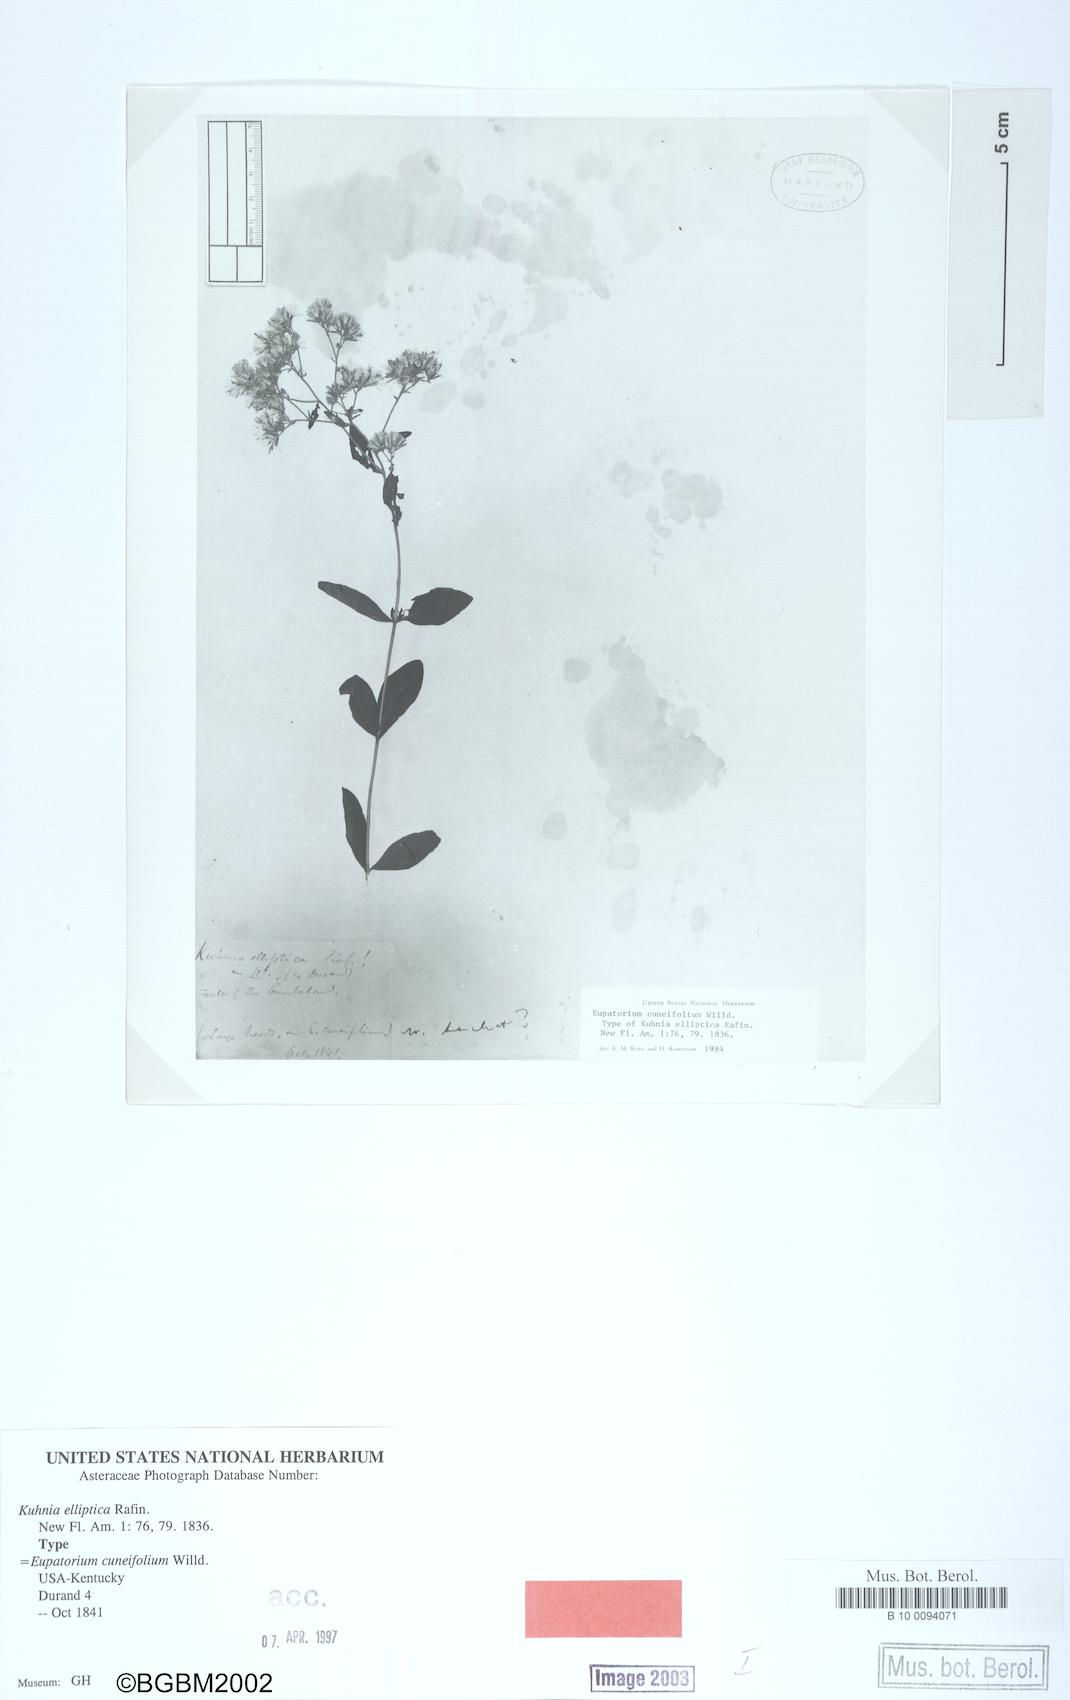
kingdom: Plantae
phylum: Tracheophyta
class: Magnoliopsida
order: Asterales
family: Asteraceae
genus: Eupatorium
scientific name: Eupatorium linearifolium
